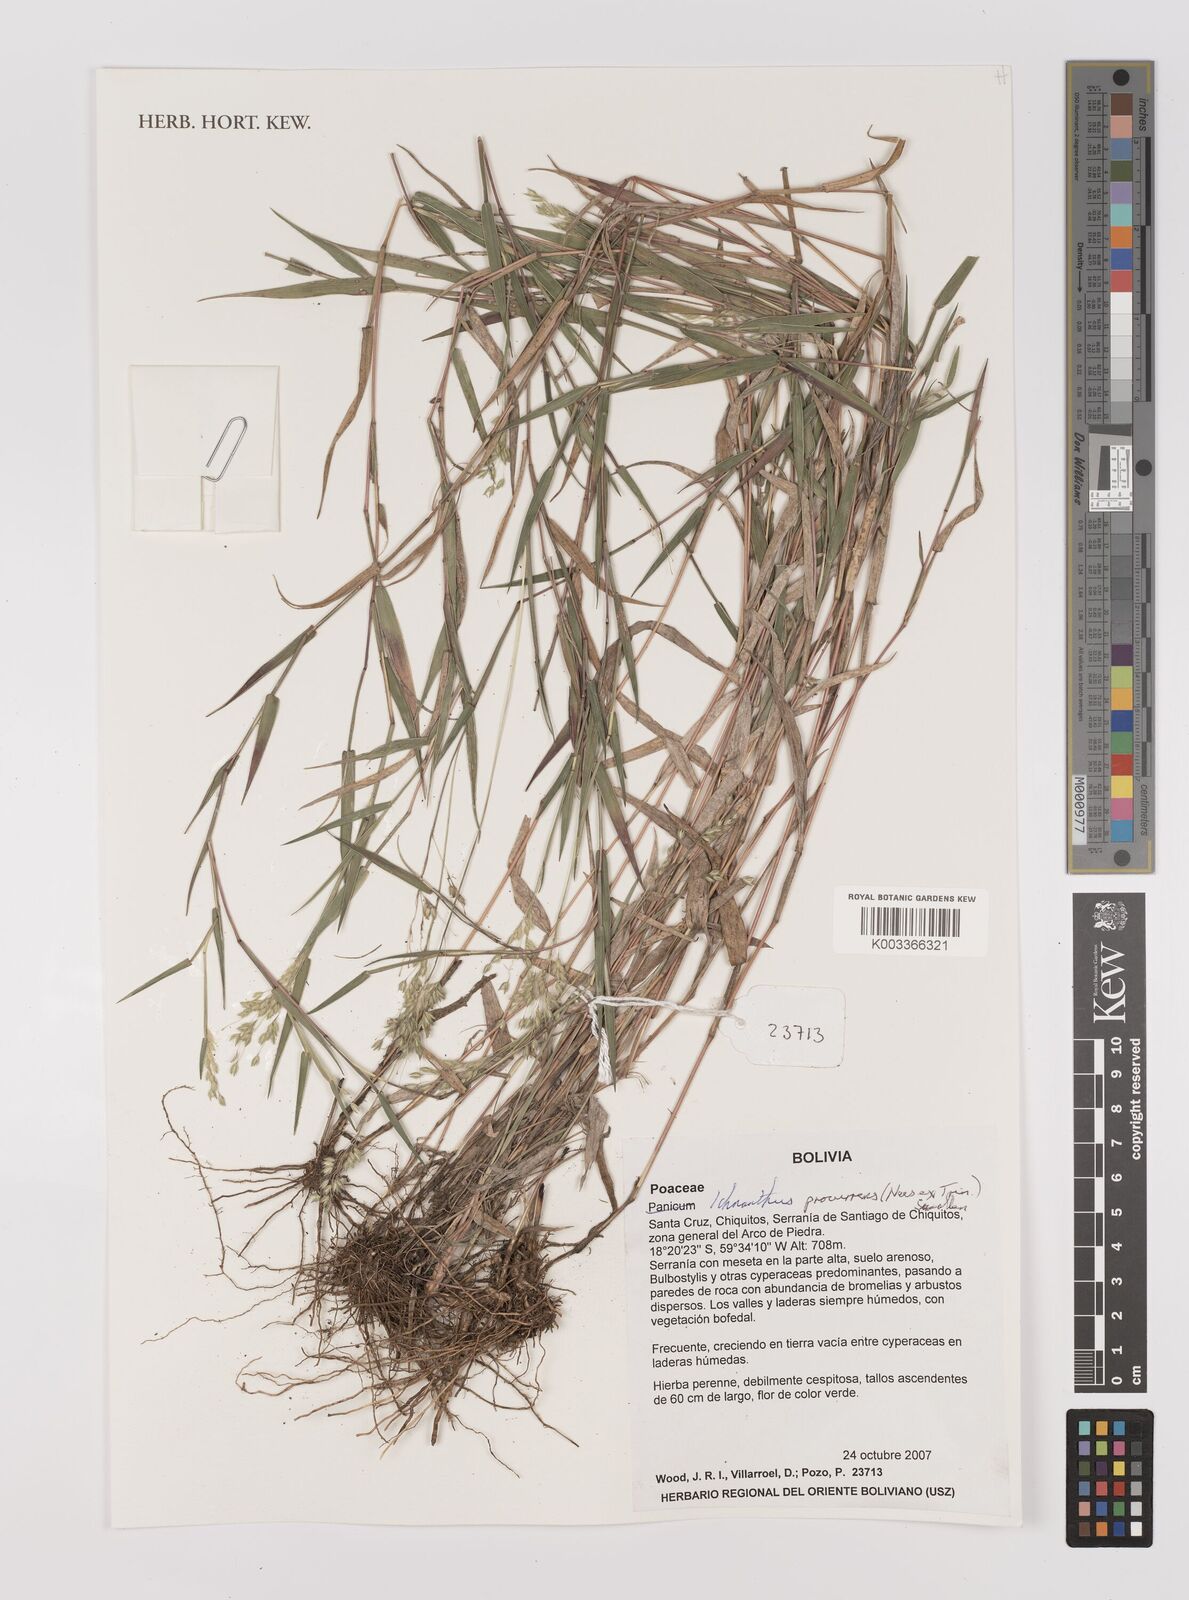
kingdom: Plantae
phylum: Tracheophyta
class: Liliopsida
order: Poales
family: Poaceae
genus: Oedochloa
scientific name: Oedochloa procurrens
